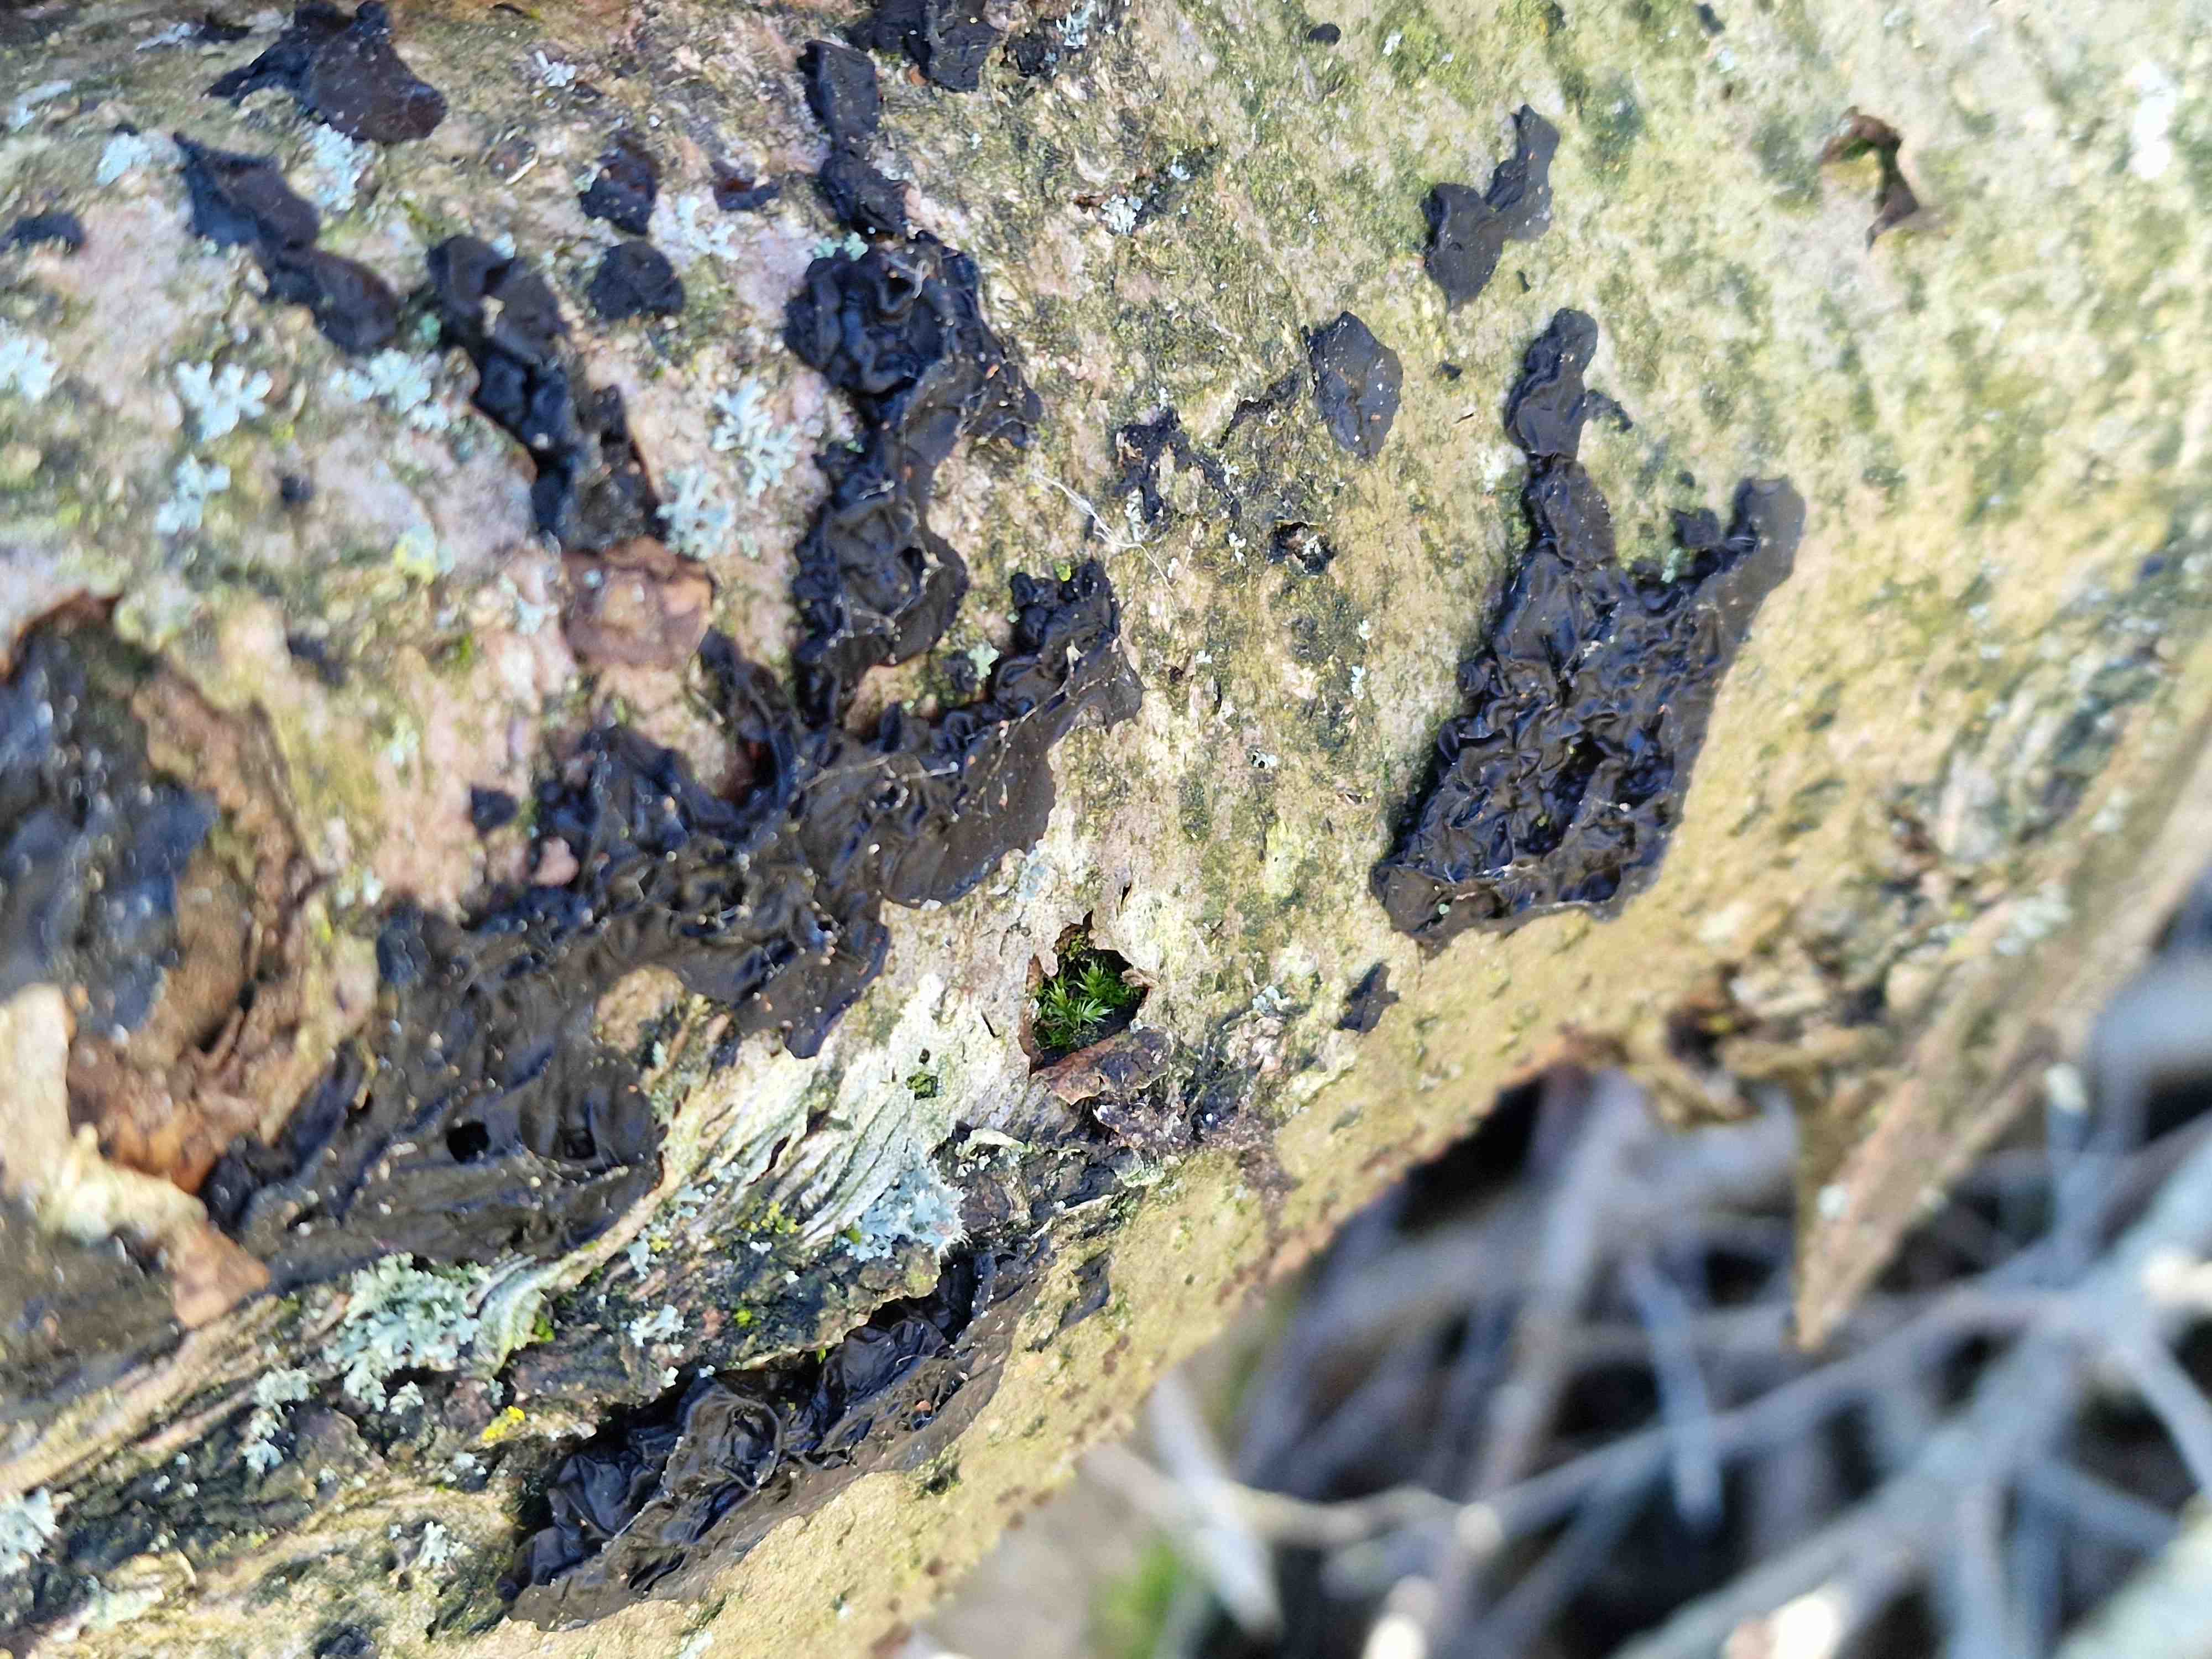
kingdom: Fungi
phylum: Basidiomycota
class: Agaricomycetes
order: Auriculariales
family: Auriculariaceae
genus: Exidia
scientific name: Exidia nigricans
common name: almindelig bævretop
